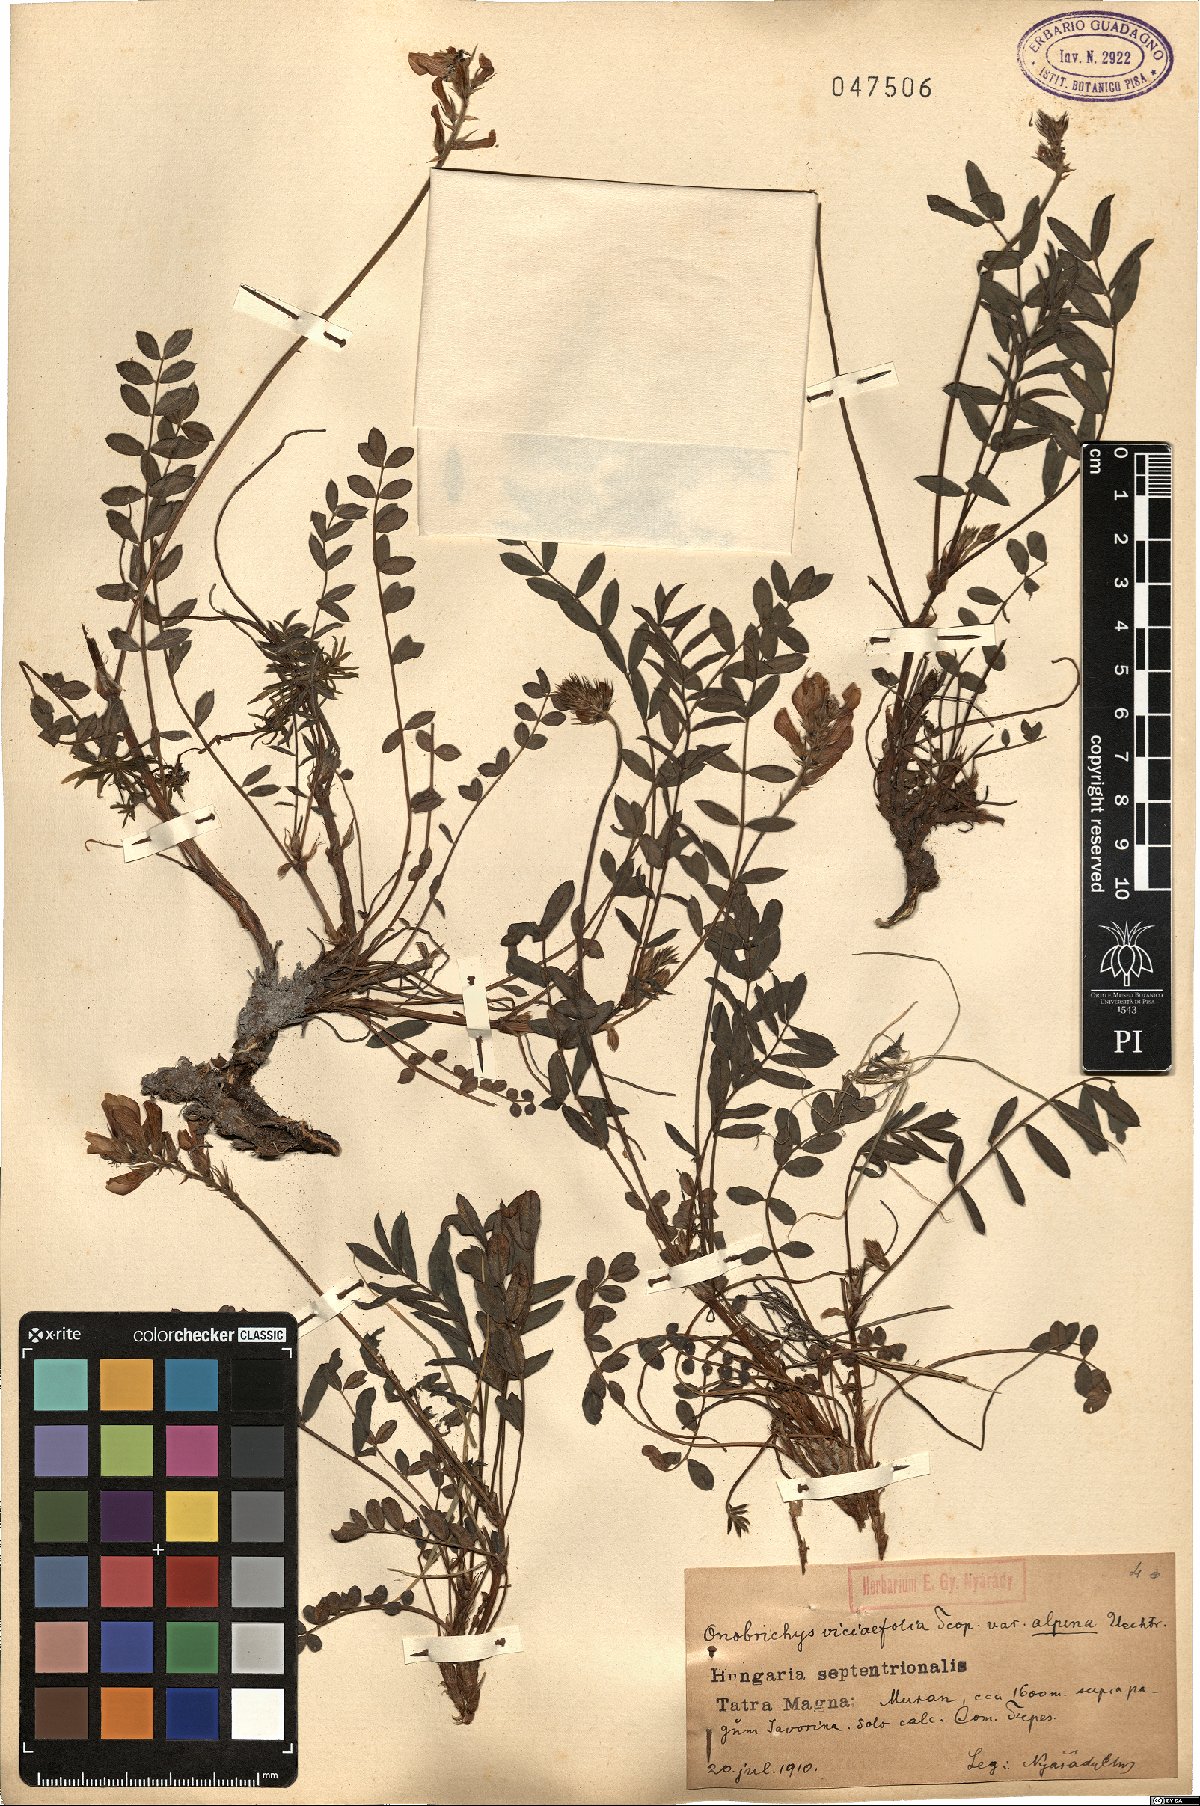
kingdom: Plantae
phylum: Tracheophyta
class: Magnoliopsida
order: Fabales
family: Fabaceae
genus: Onobrychis
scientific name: Onobrychis viciifolia
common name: Sainfoin
